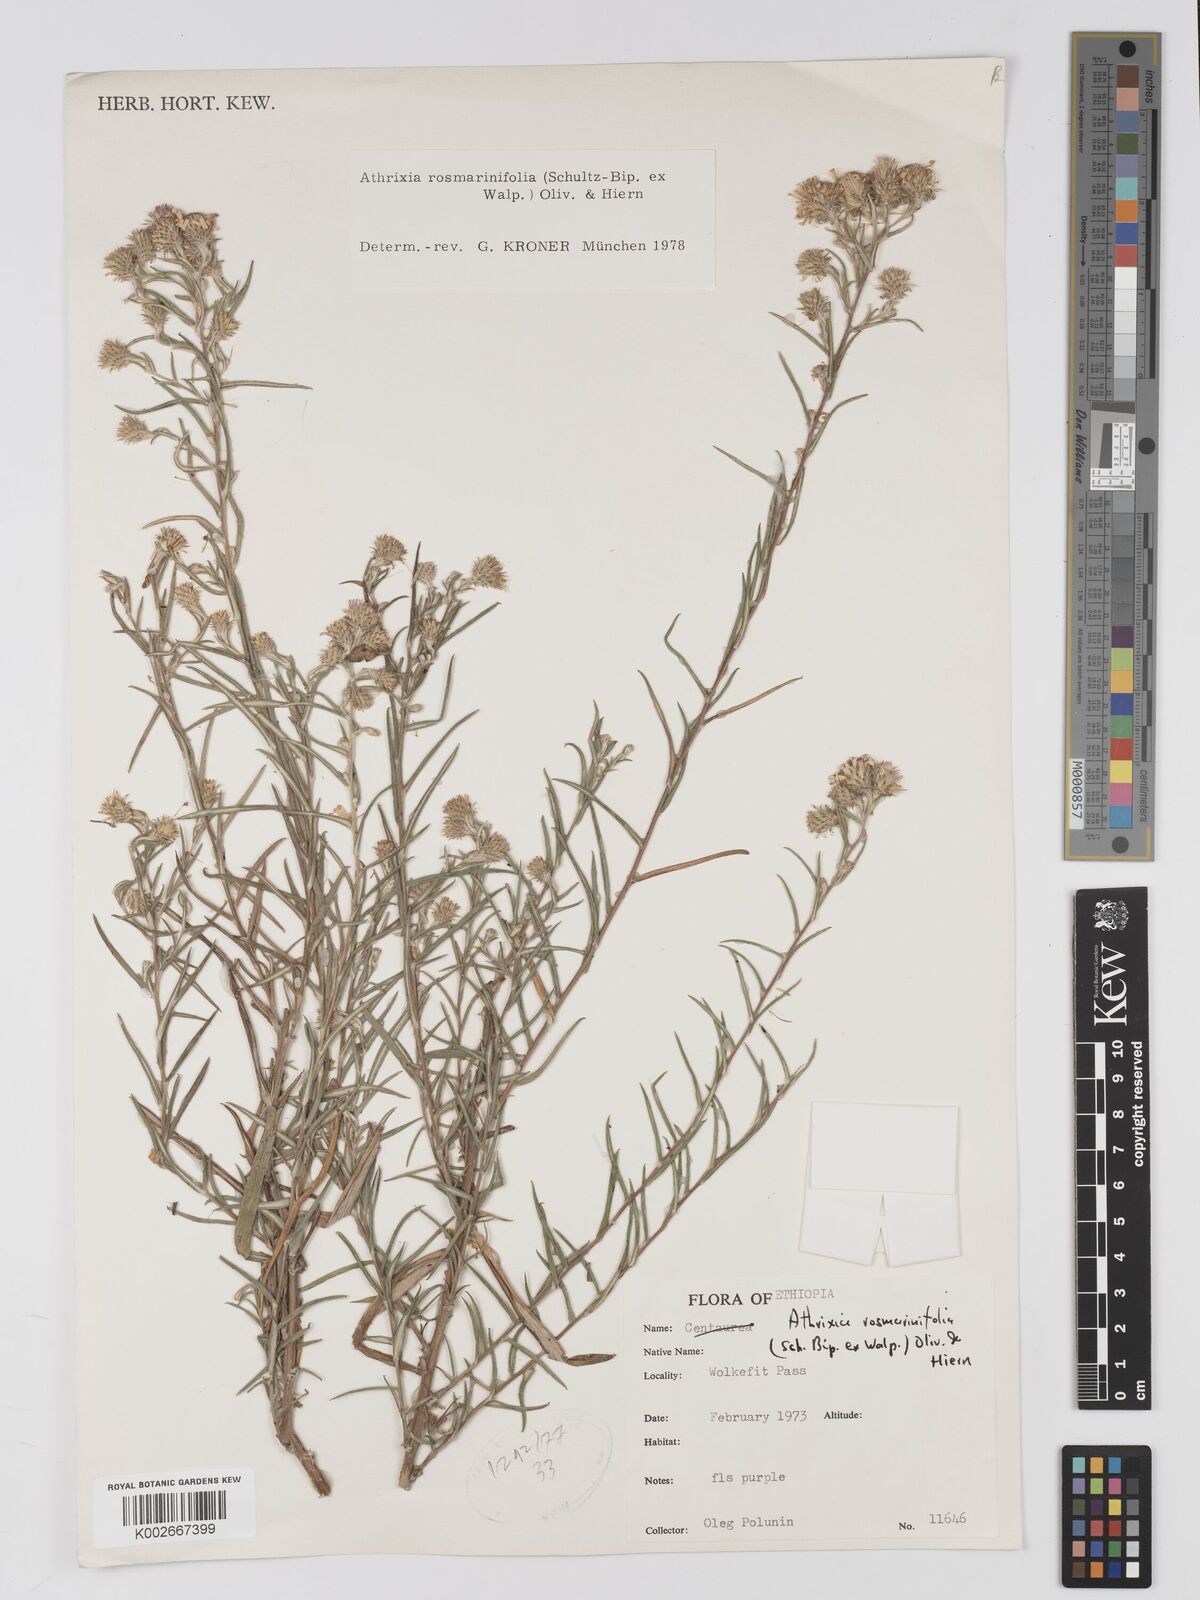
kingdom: Plantae
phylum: Tracheophyta
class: Magnoliopsida
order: Asterales
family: Asteraceae
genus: Athrixia
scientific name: Athrixia rosmarinifolia
